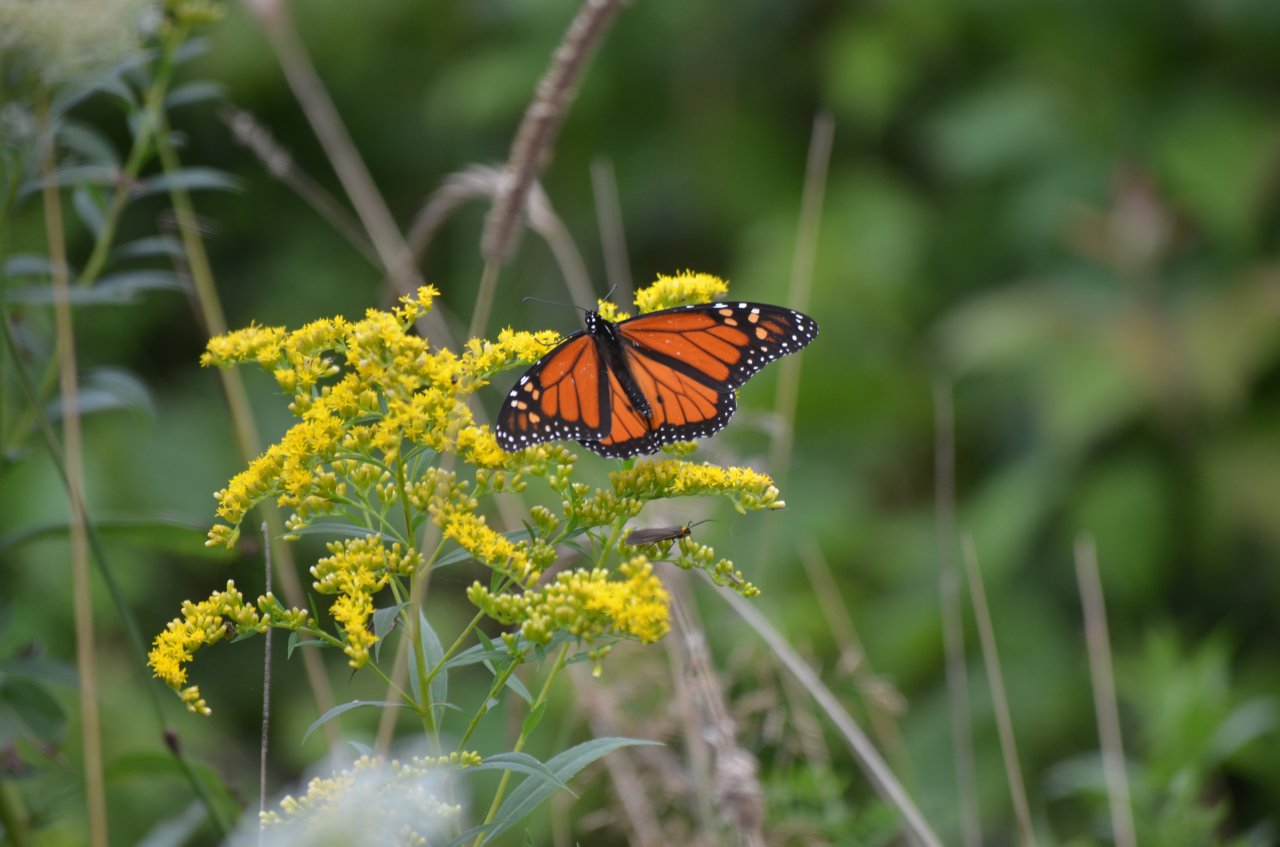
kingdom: Animalia
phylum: Arthropoda
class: Insecta
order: Lepidoptera
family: Nymphalidae
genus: Danaus
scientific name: Danaus plexippus
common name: Monarch
